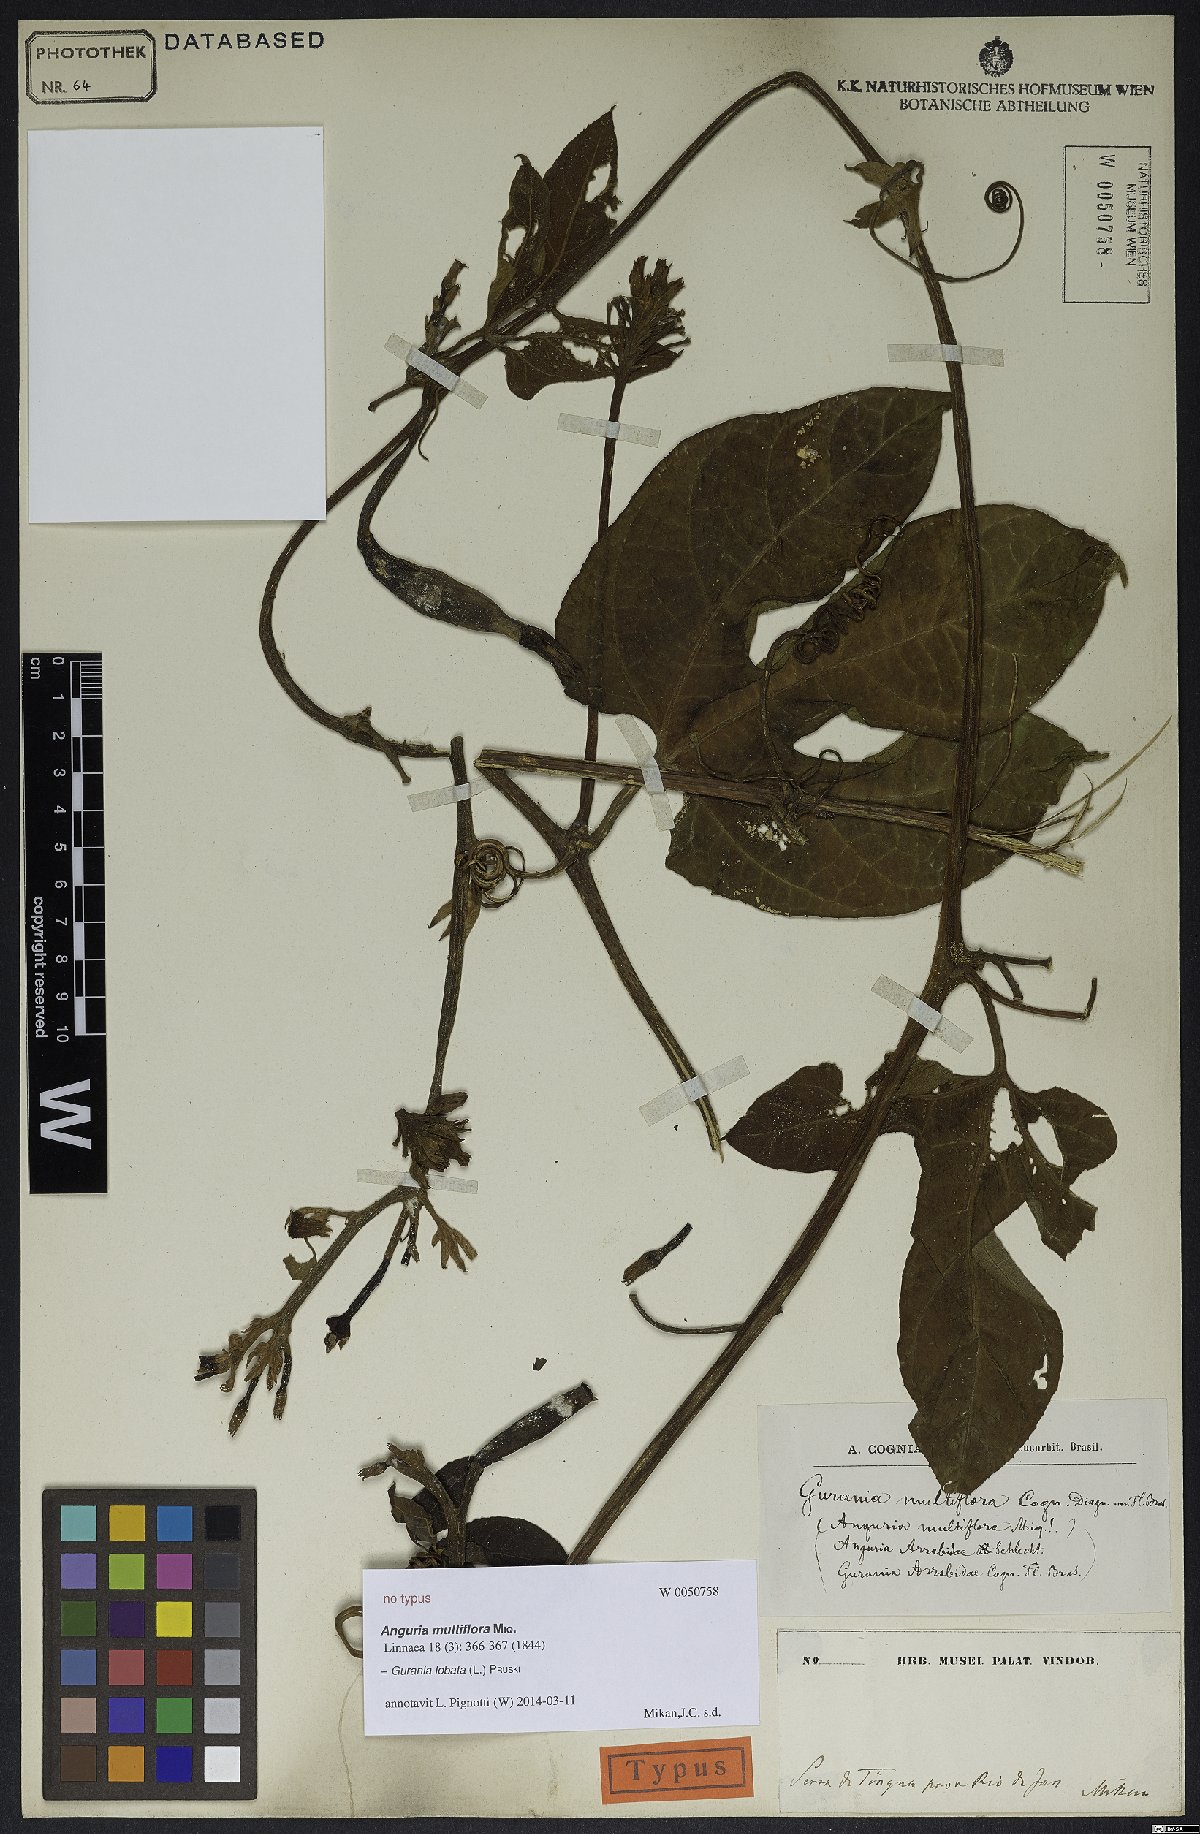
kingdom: Plantae
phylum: Tracheophyta
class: Magnoliopsida
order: Cucurbitales
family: Cucurbitaceae
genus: Gurania
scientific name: Gurania lobata
